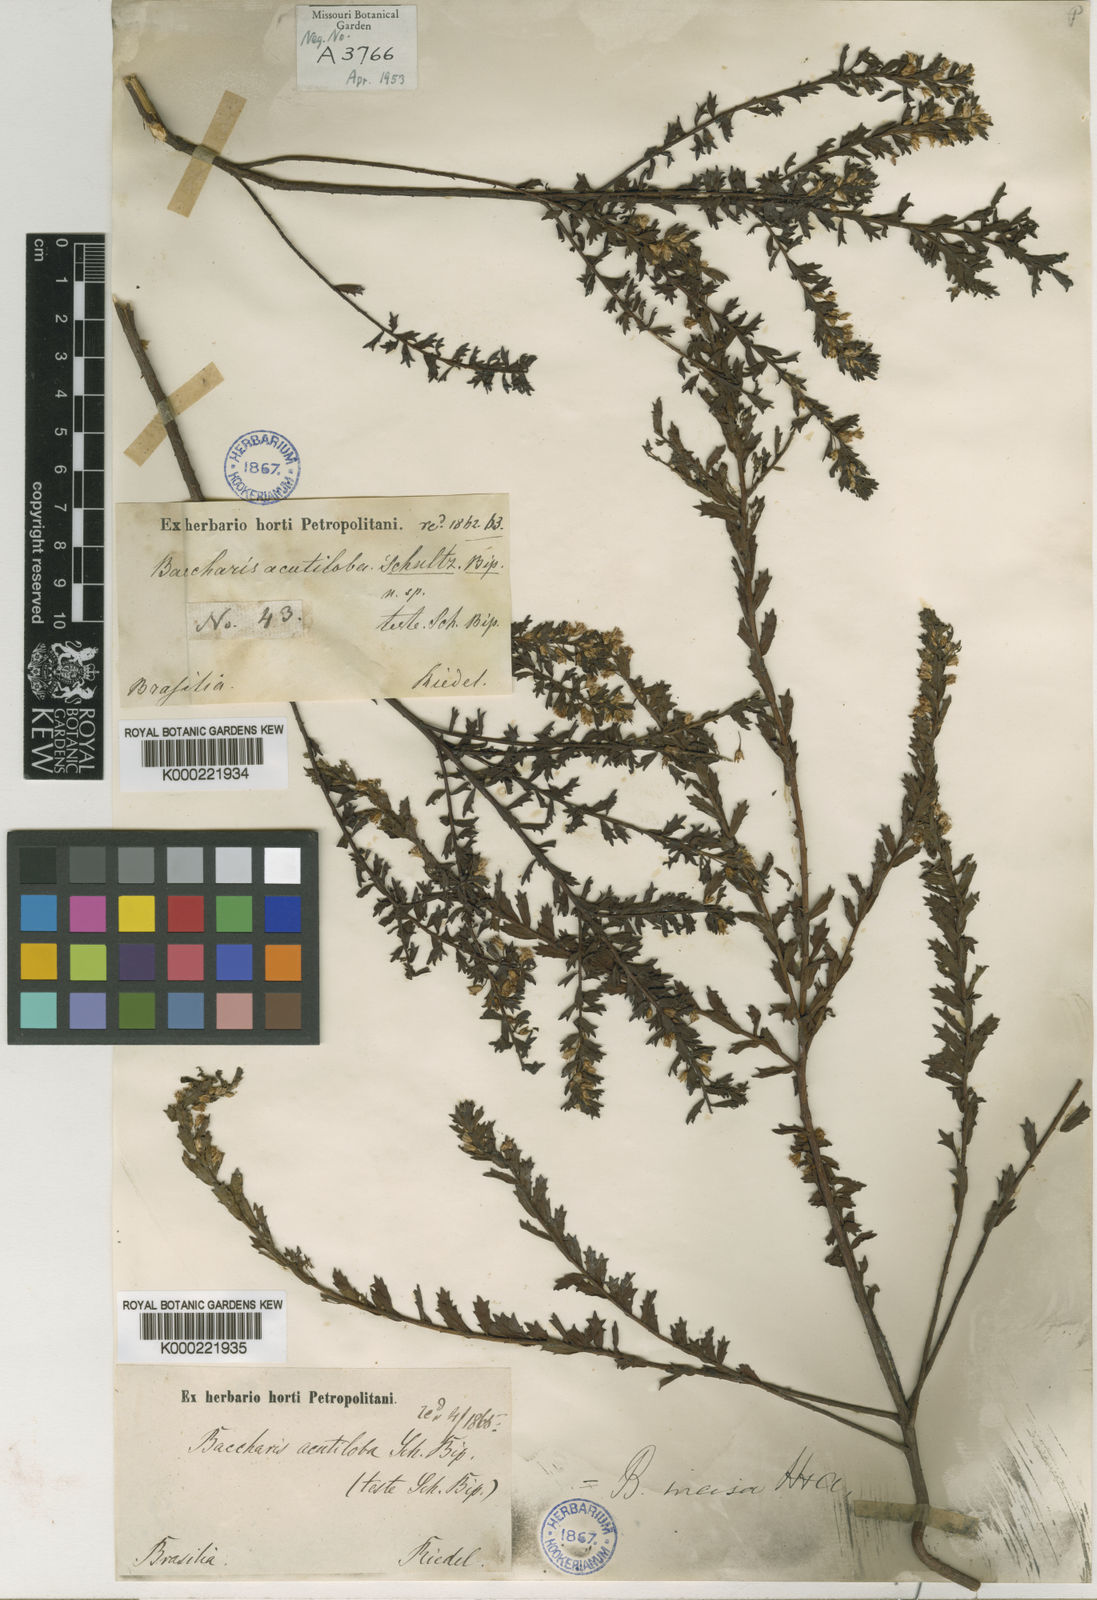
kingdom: Plantae
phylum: Tracheophyta
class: Magnoliopsida
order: Asterales
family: Asteraceae
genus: Baccharis
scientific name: Baccharis incisa
